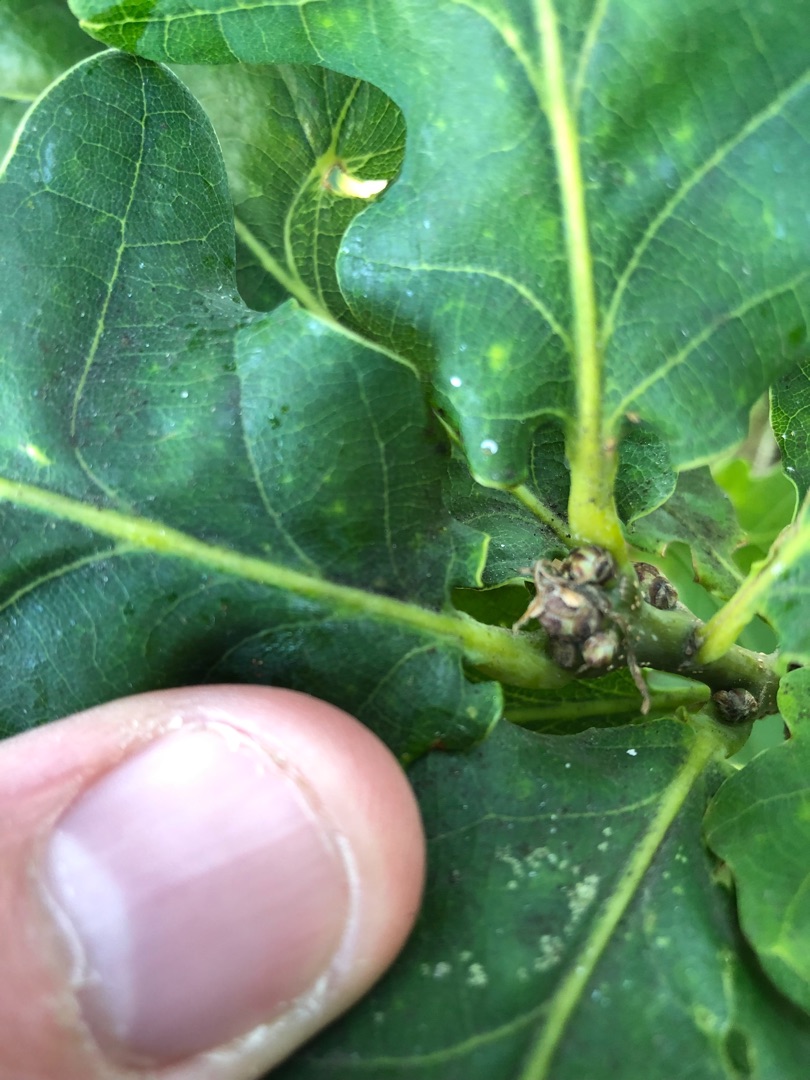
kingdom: Plantae
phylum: Tracheophyta
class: Magnoliopsida
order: Fagales
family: Fagaceae
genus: Quercus
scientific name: Quercus robur
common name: Stilk-eg/almindelig eg
